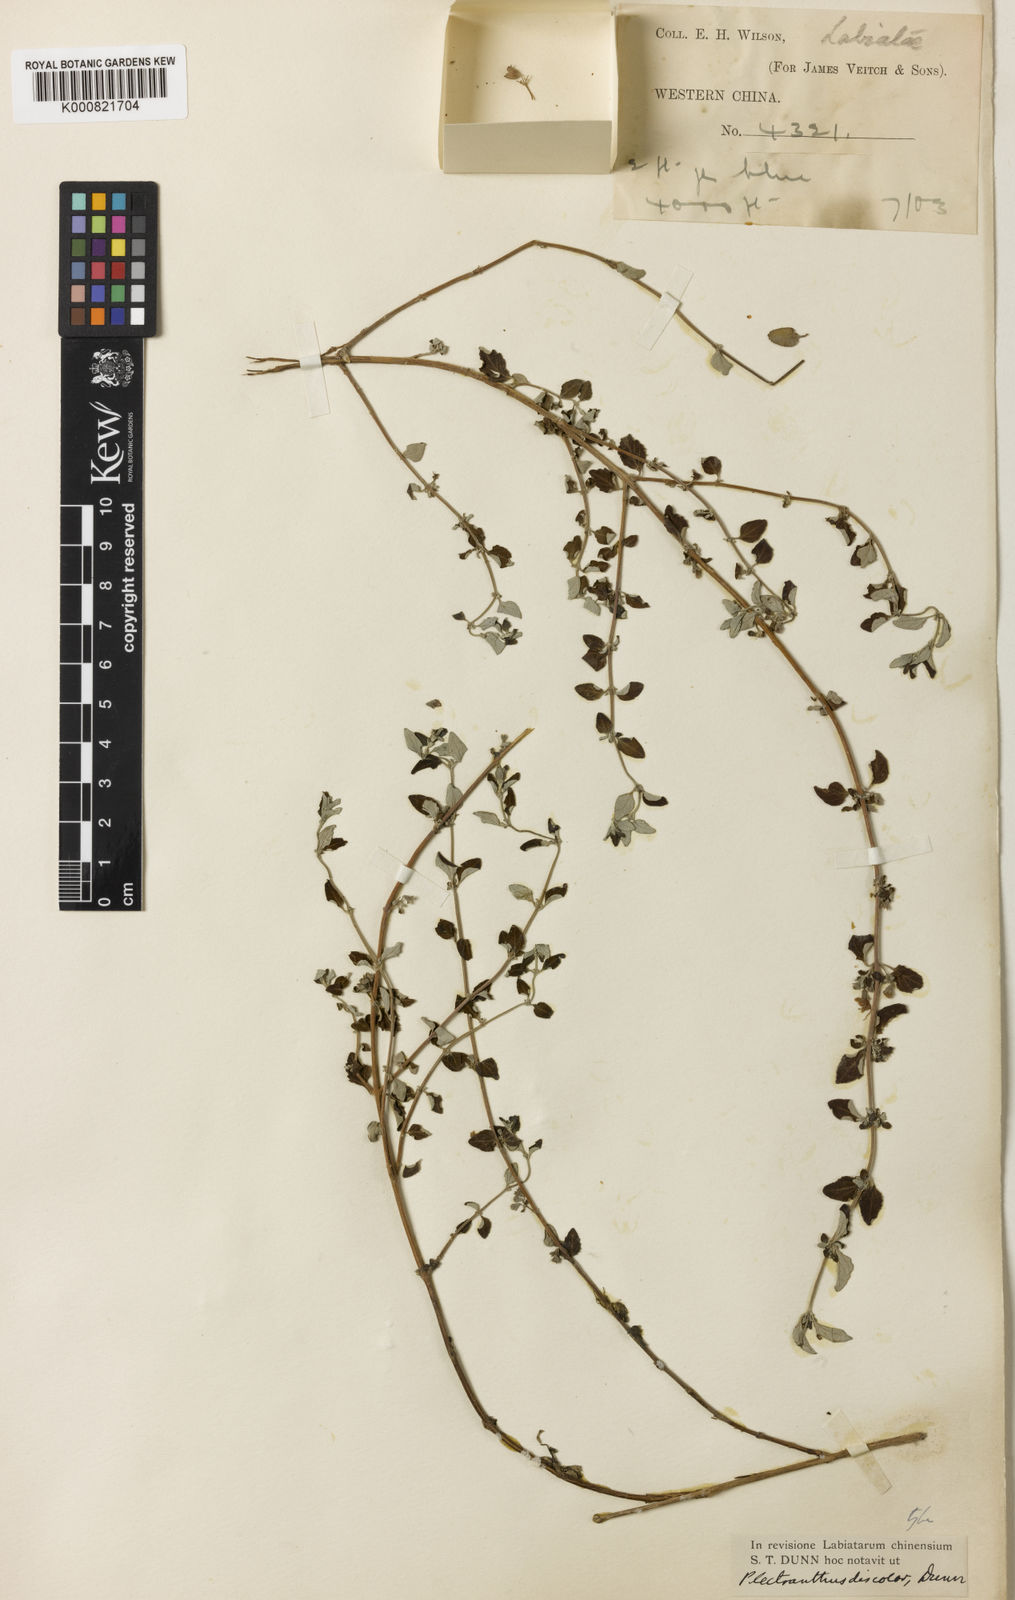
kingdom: Plantae
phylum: Tracheophyta
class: Magnoliopsida
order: Lamiales
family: Lamiaceae
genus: Isodon
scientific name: Isodon parvifolius
